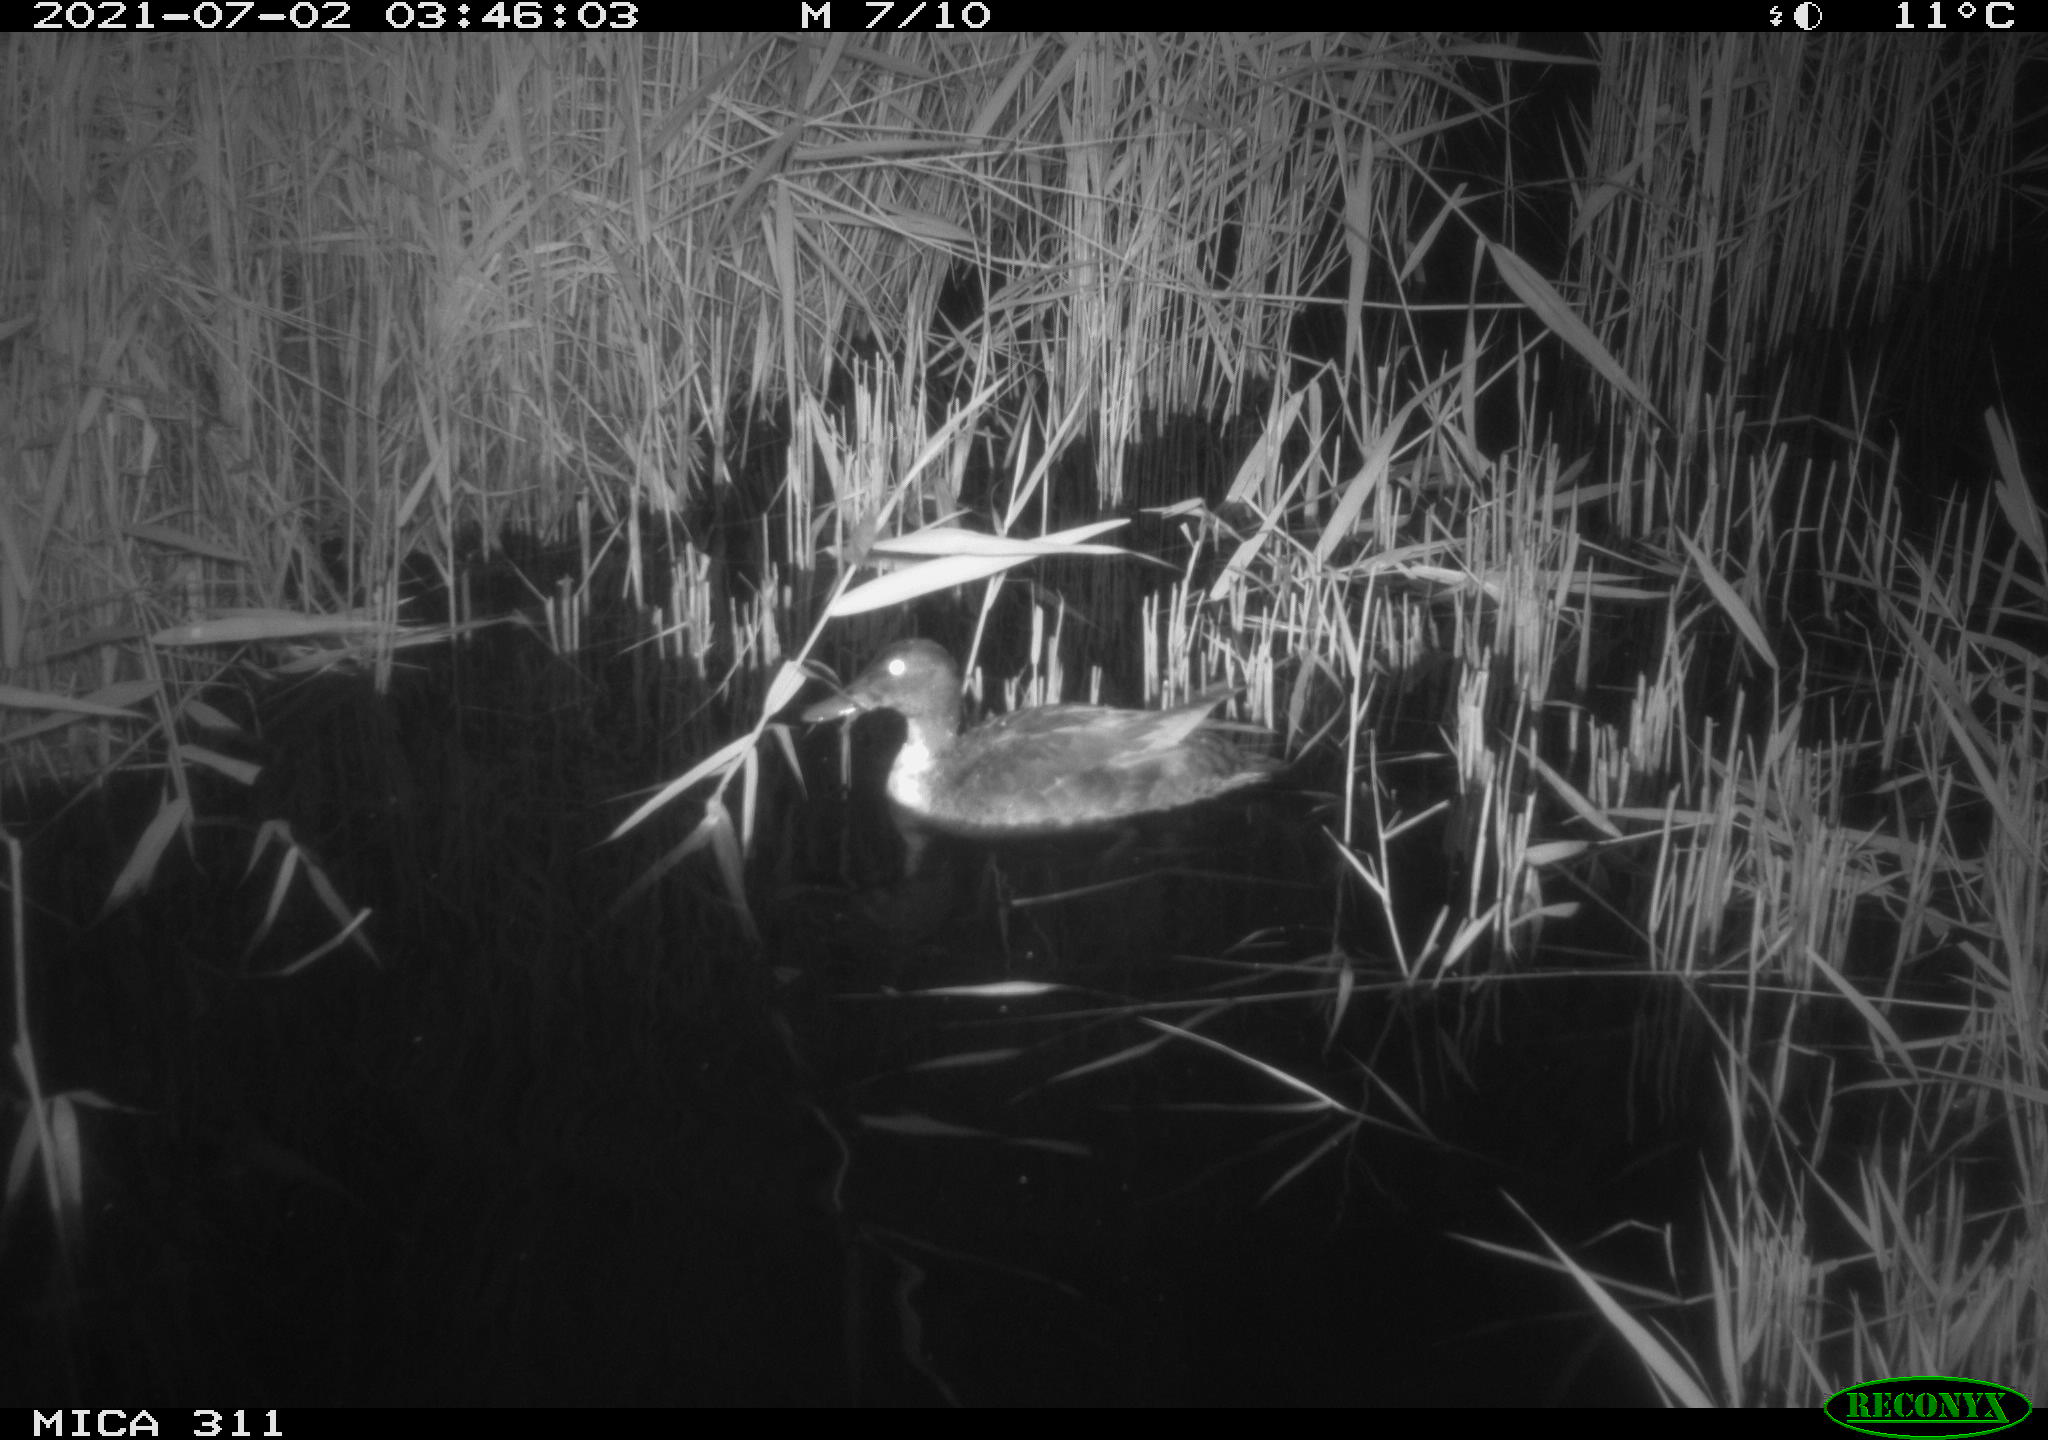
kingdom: Animalia
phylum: Chordata
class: Aves
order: Anseriformes
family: Anatidae
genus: Anas
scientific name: Anas
